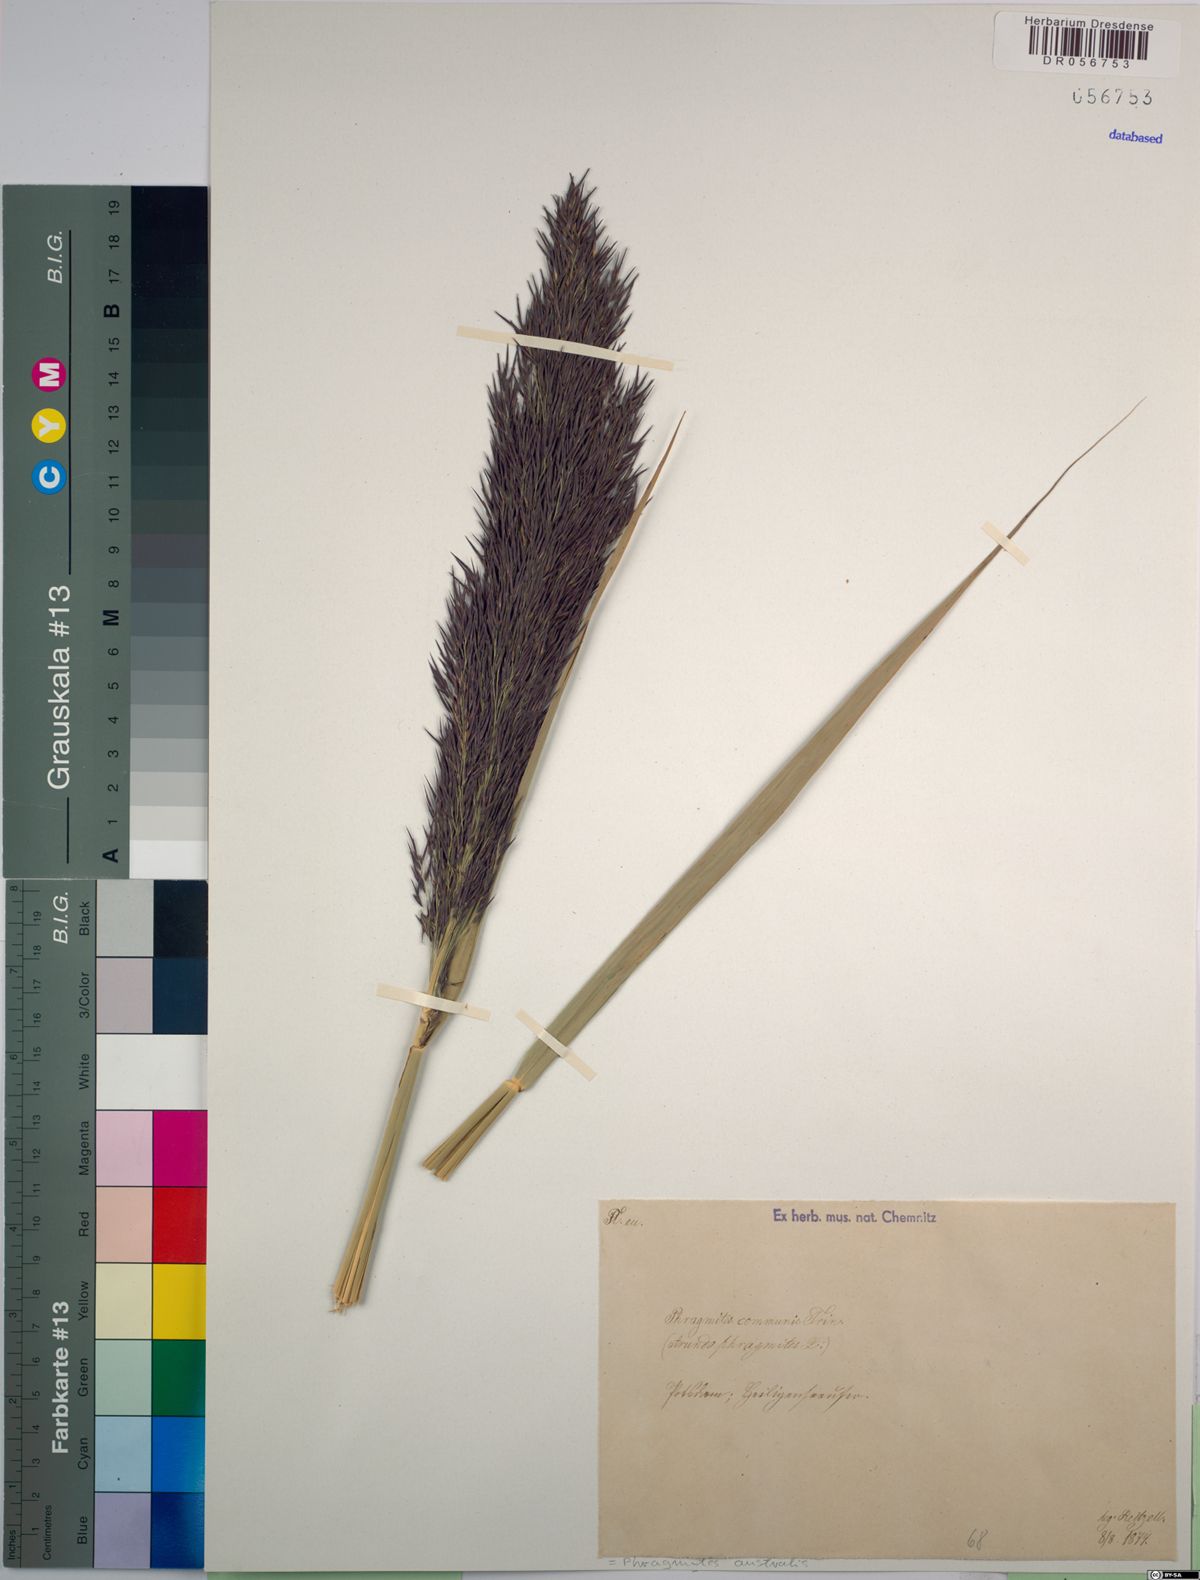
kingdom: Plantae
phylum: Tracheophyta
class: Liliopsida
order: Poales
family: Poaceae
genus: Phragmites
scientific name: Phragmites australis
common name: Common reed
